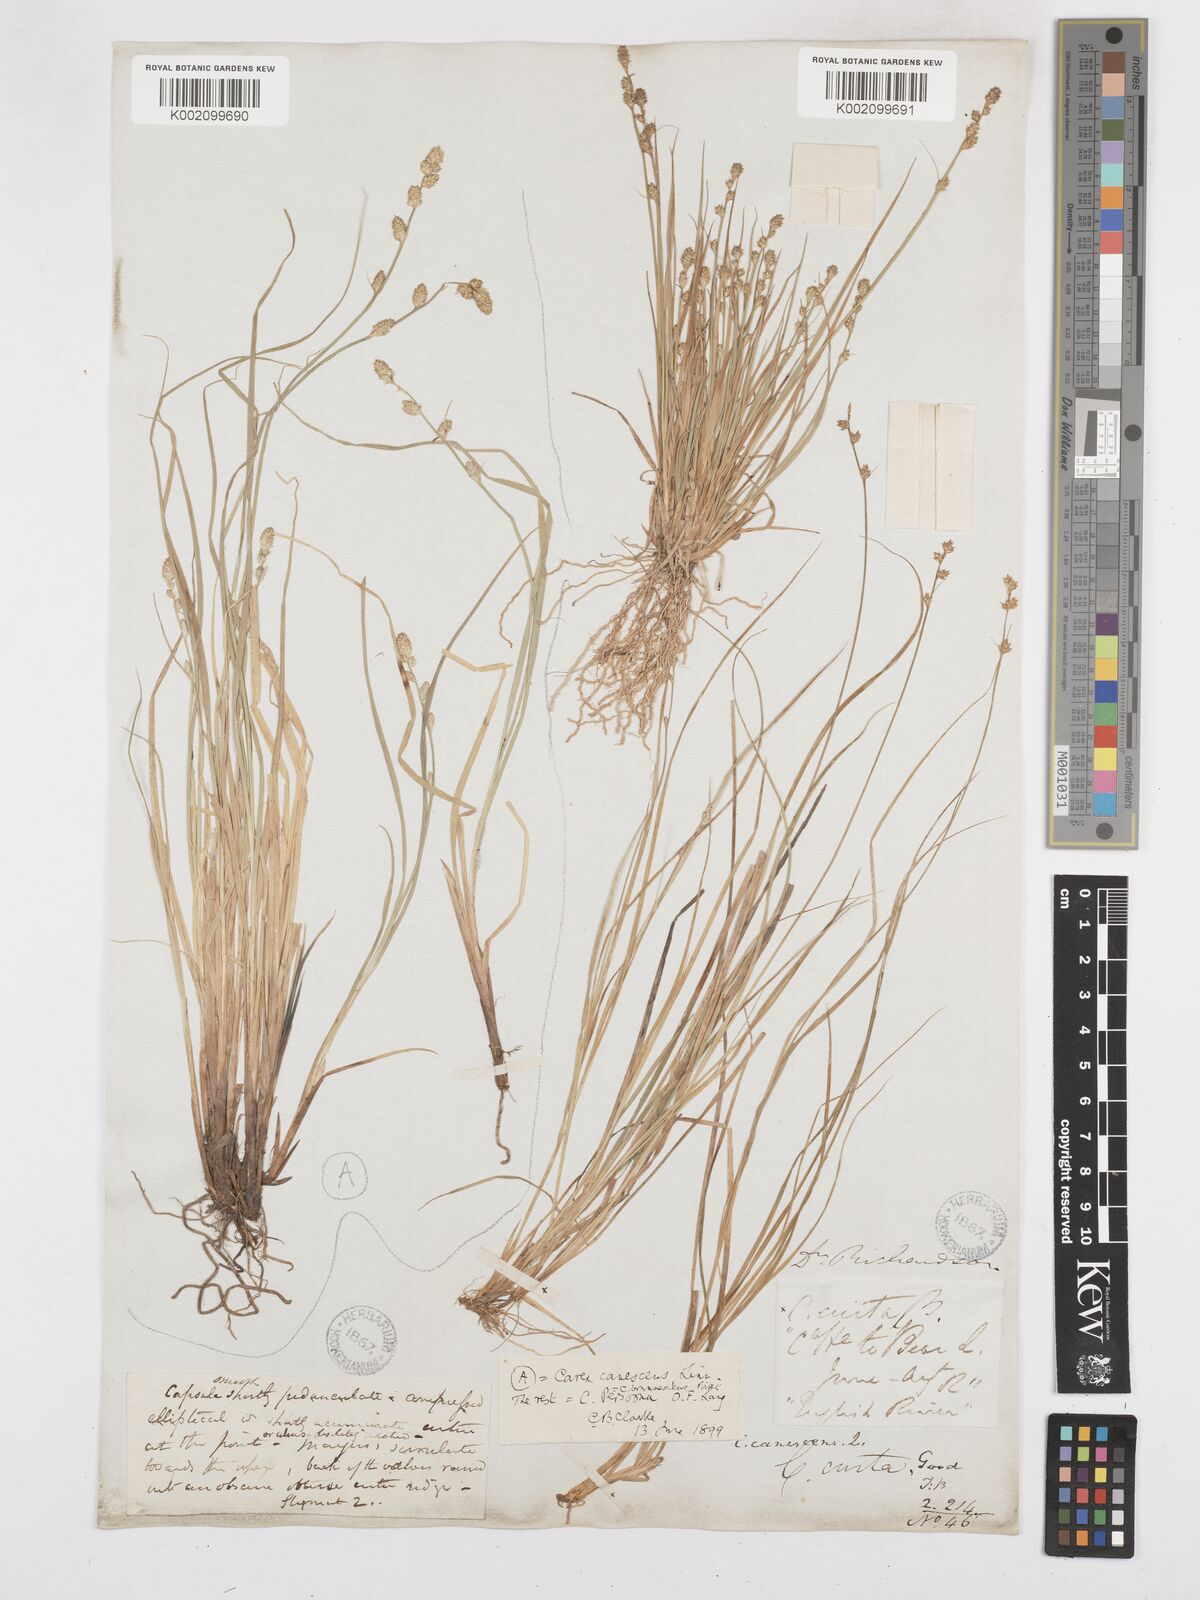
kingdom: Plantae
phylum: Tracheophyta
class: Liliopsida
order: Poales
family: Cyperaceae
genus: Carex
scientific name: Carex brunnescens
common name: Brown sedge
